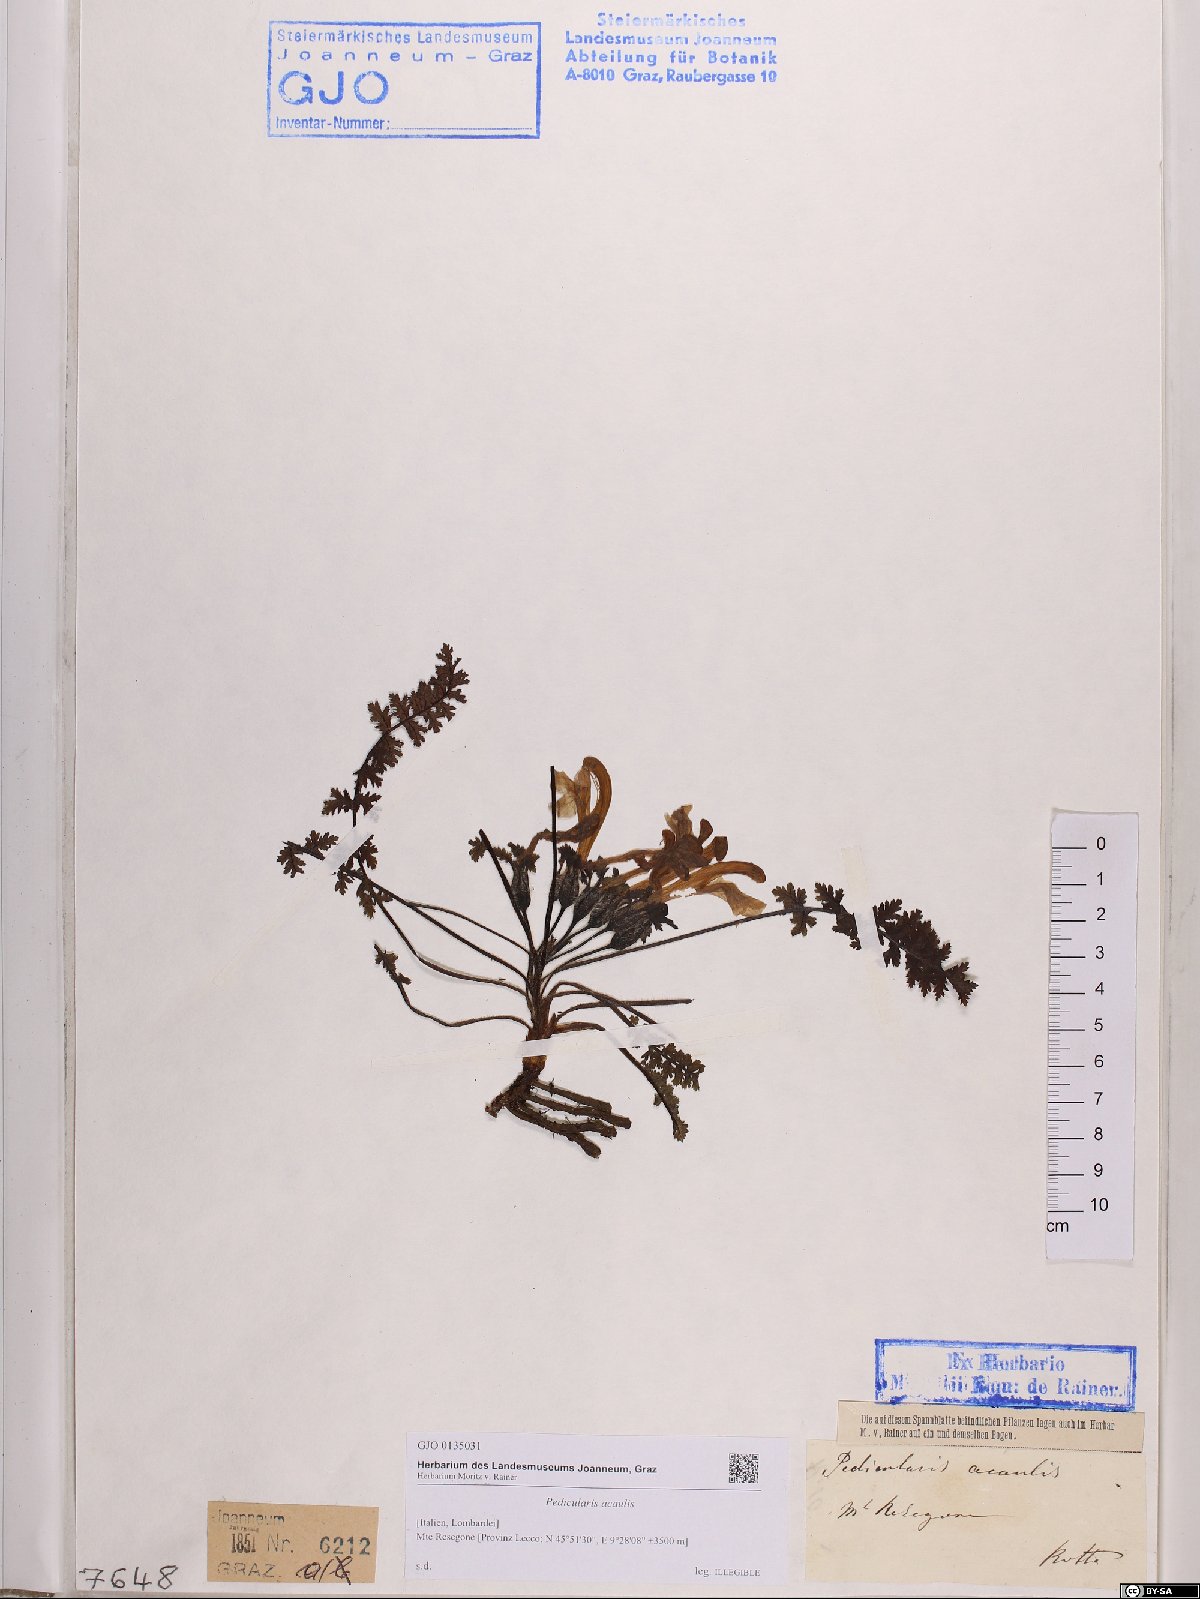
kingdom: Plantae
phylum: Tracheophyta
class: Magnoliopsida
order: Lamiales
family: Orobanchaceae
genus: Pedicularis
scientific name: Pedicularis acaulis
